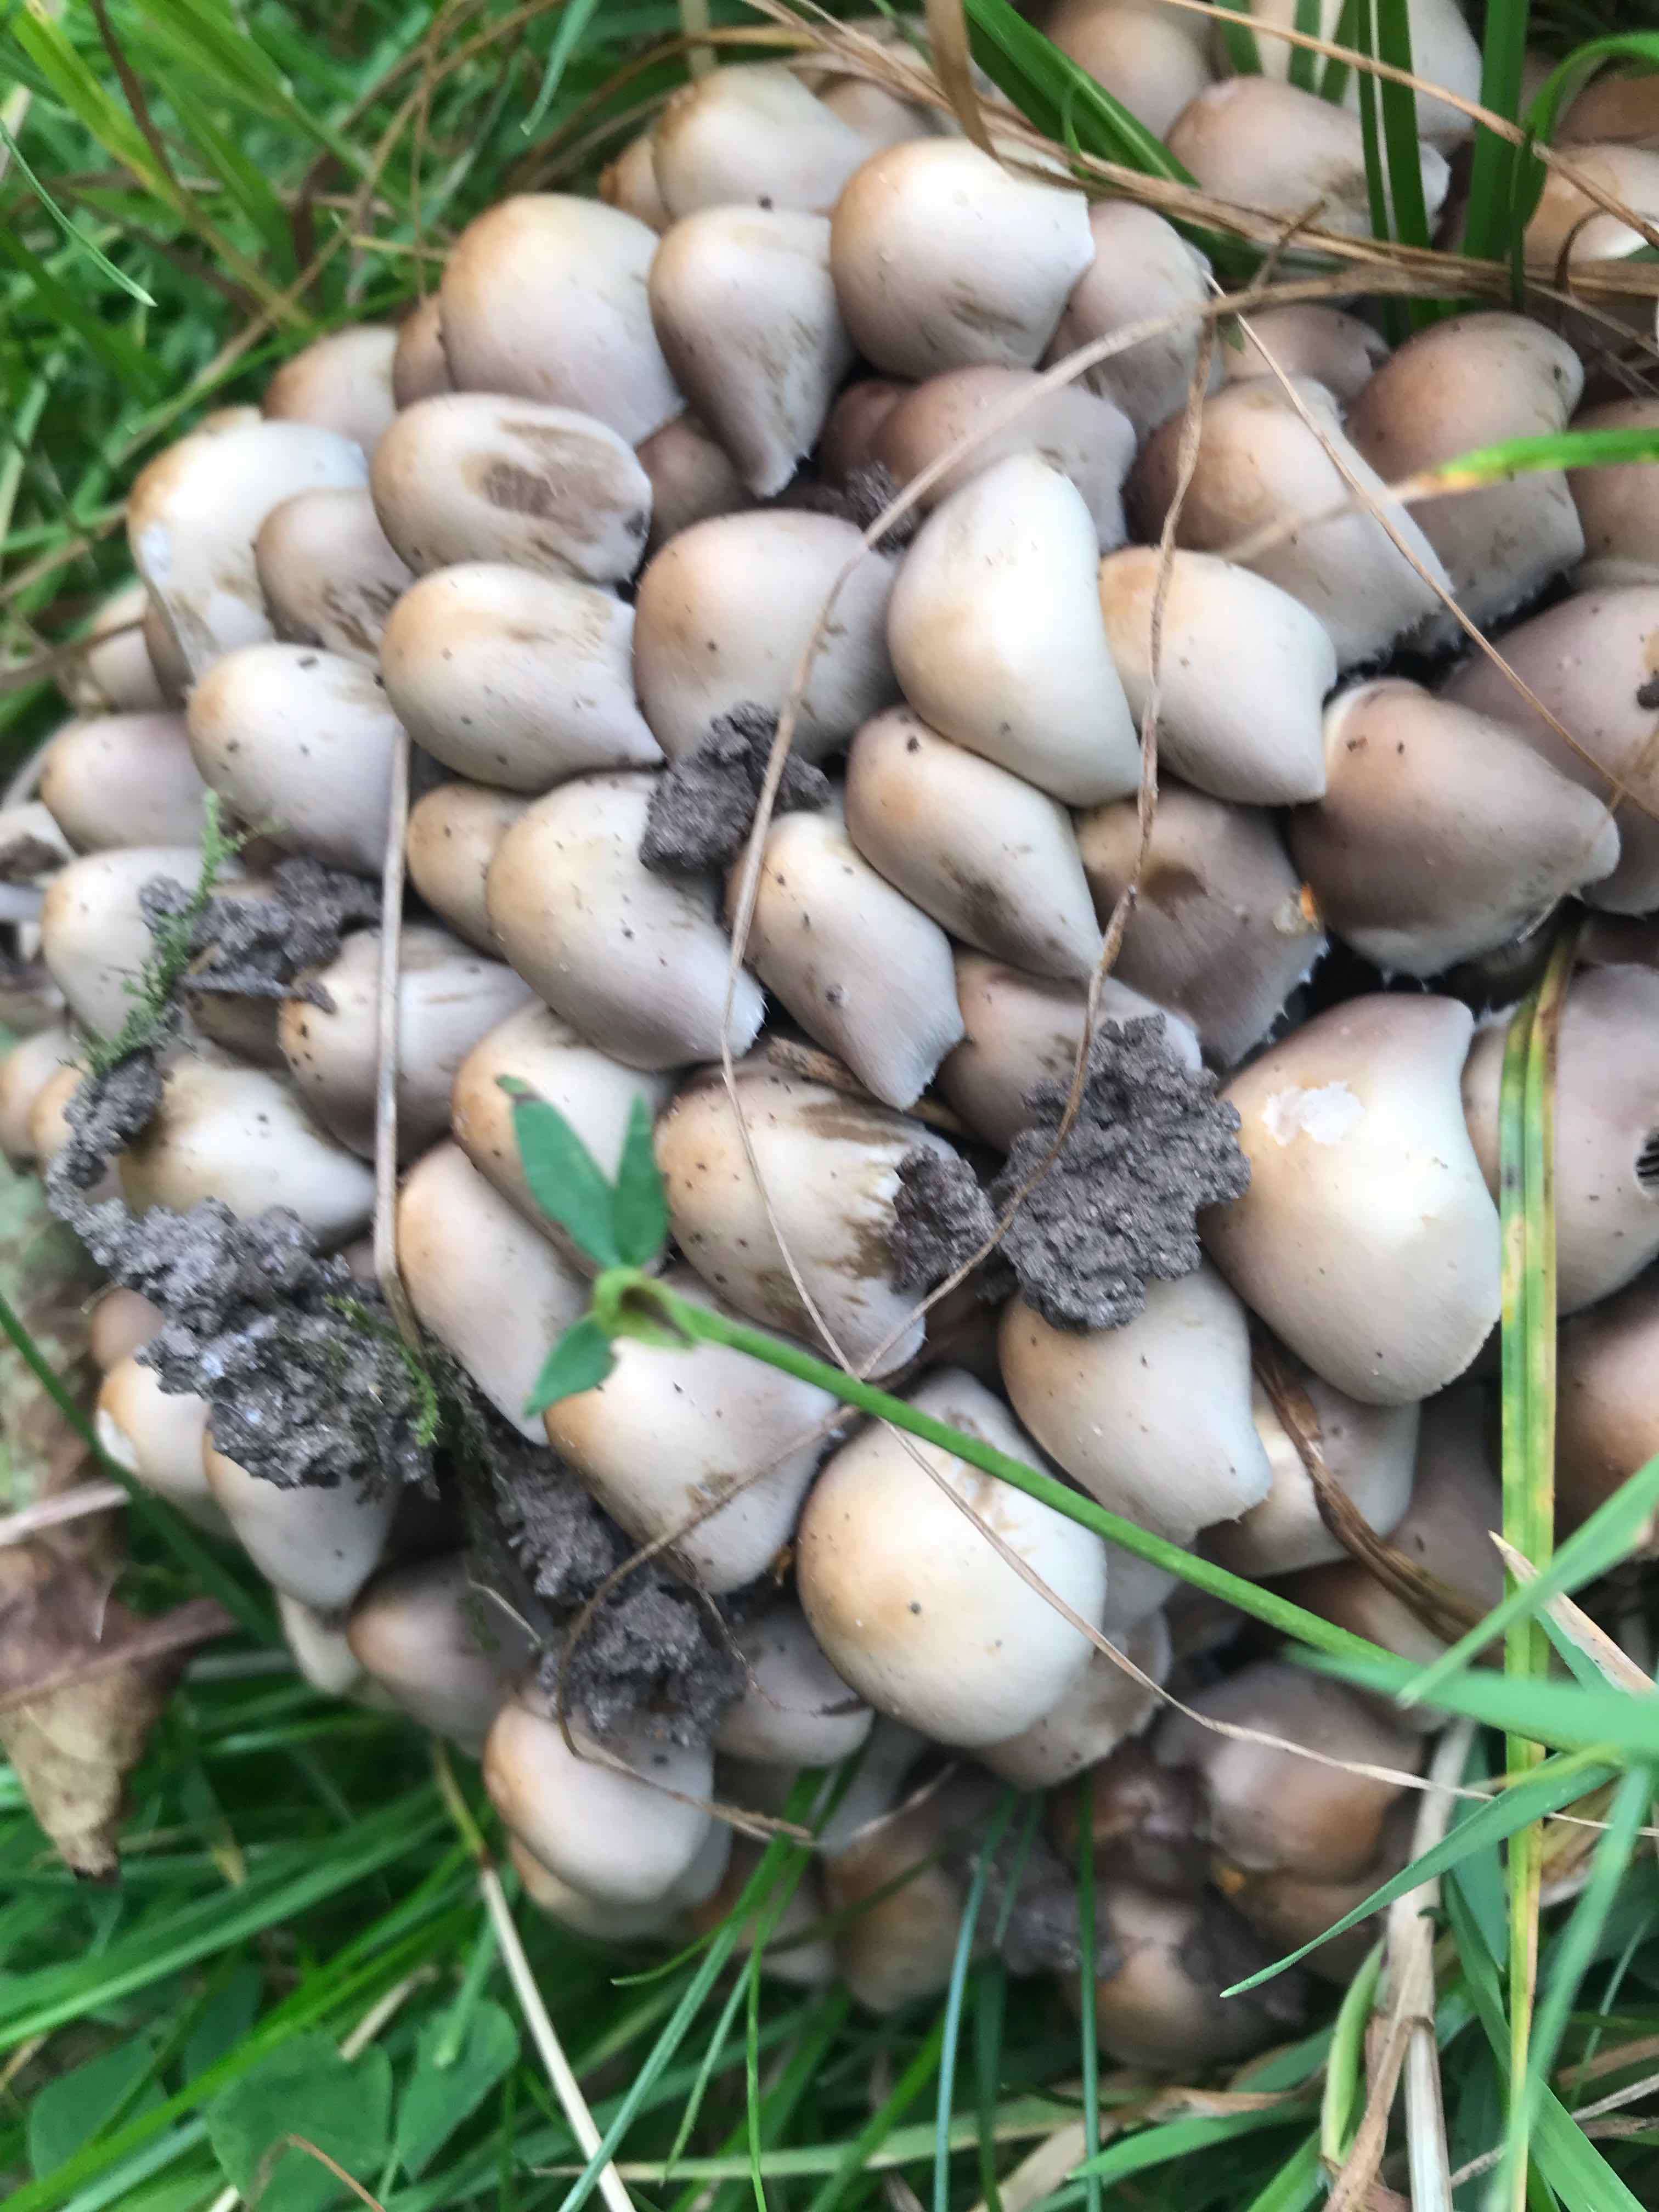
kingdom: Fungi
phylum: Basidiomycota
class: Agaricomycetes
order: Agaricales
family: Psathyrellaceae
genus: Britzelmayria
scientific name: Britzelmayria multipedata
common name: knippe-mørkhat
